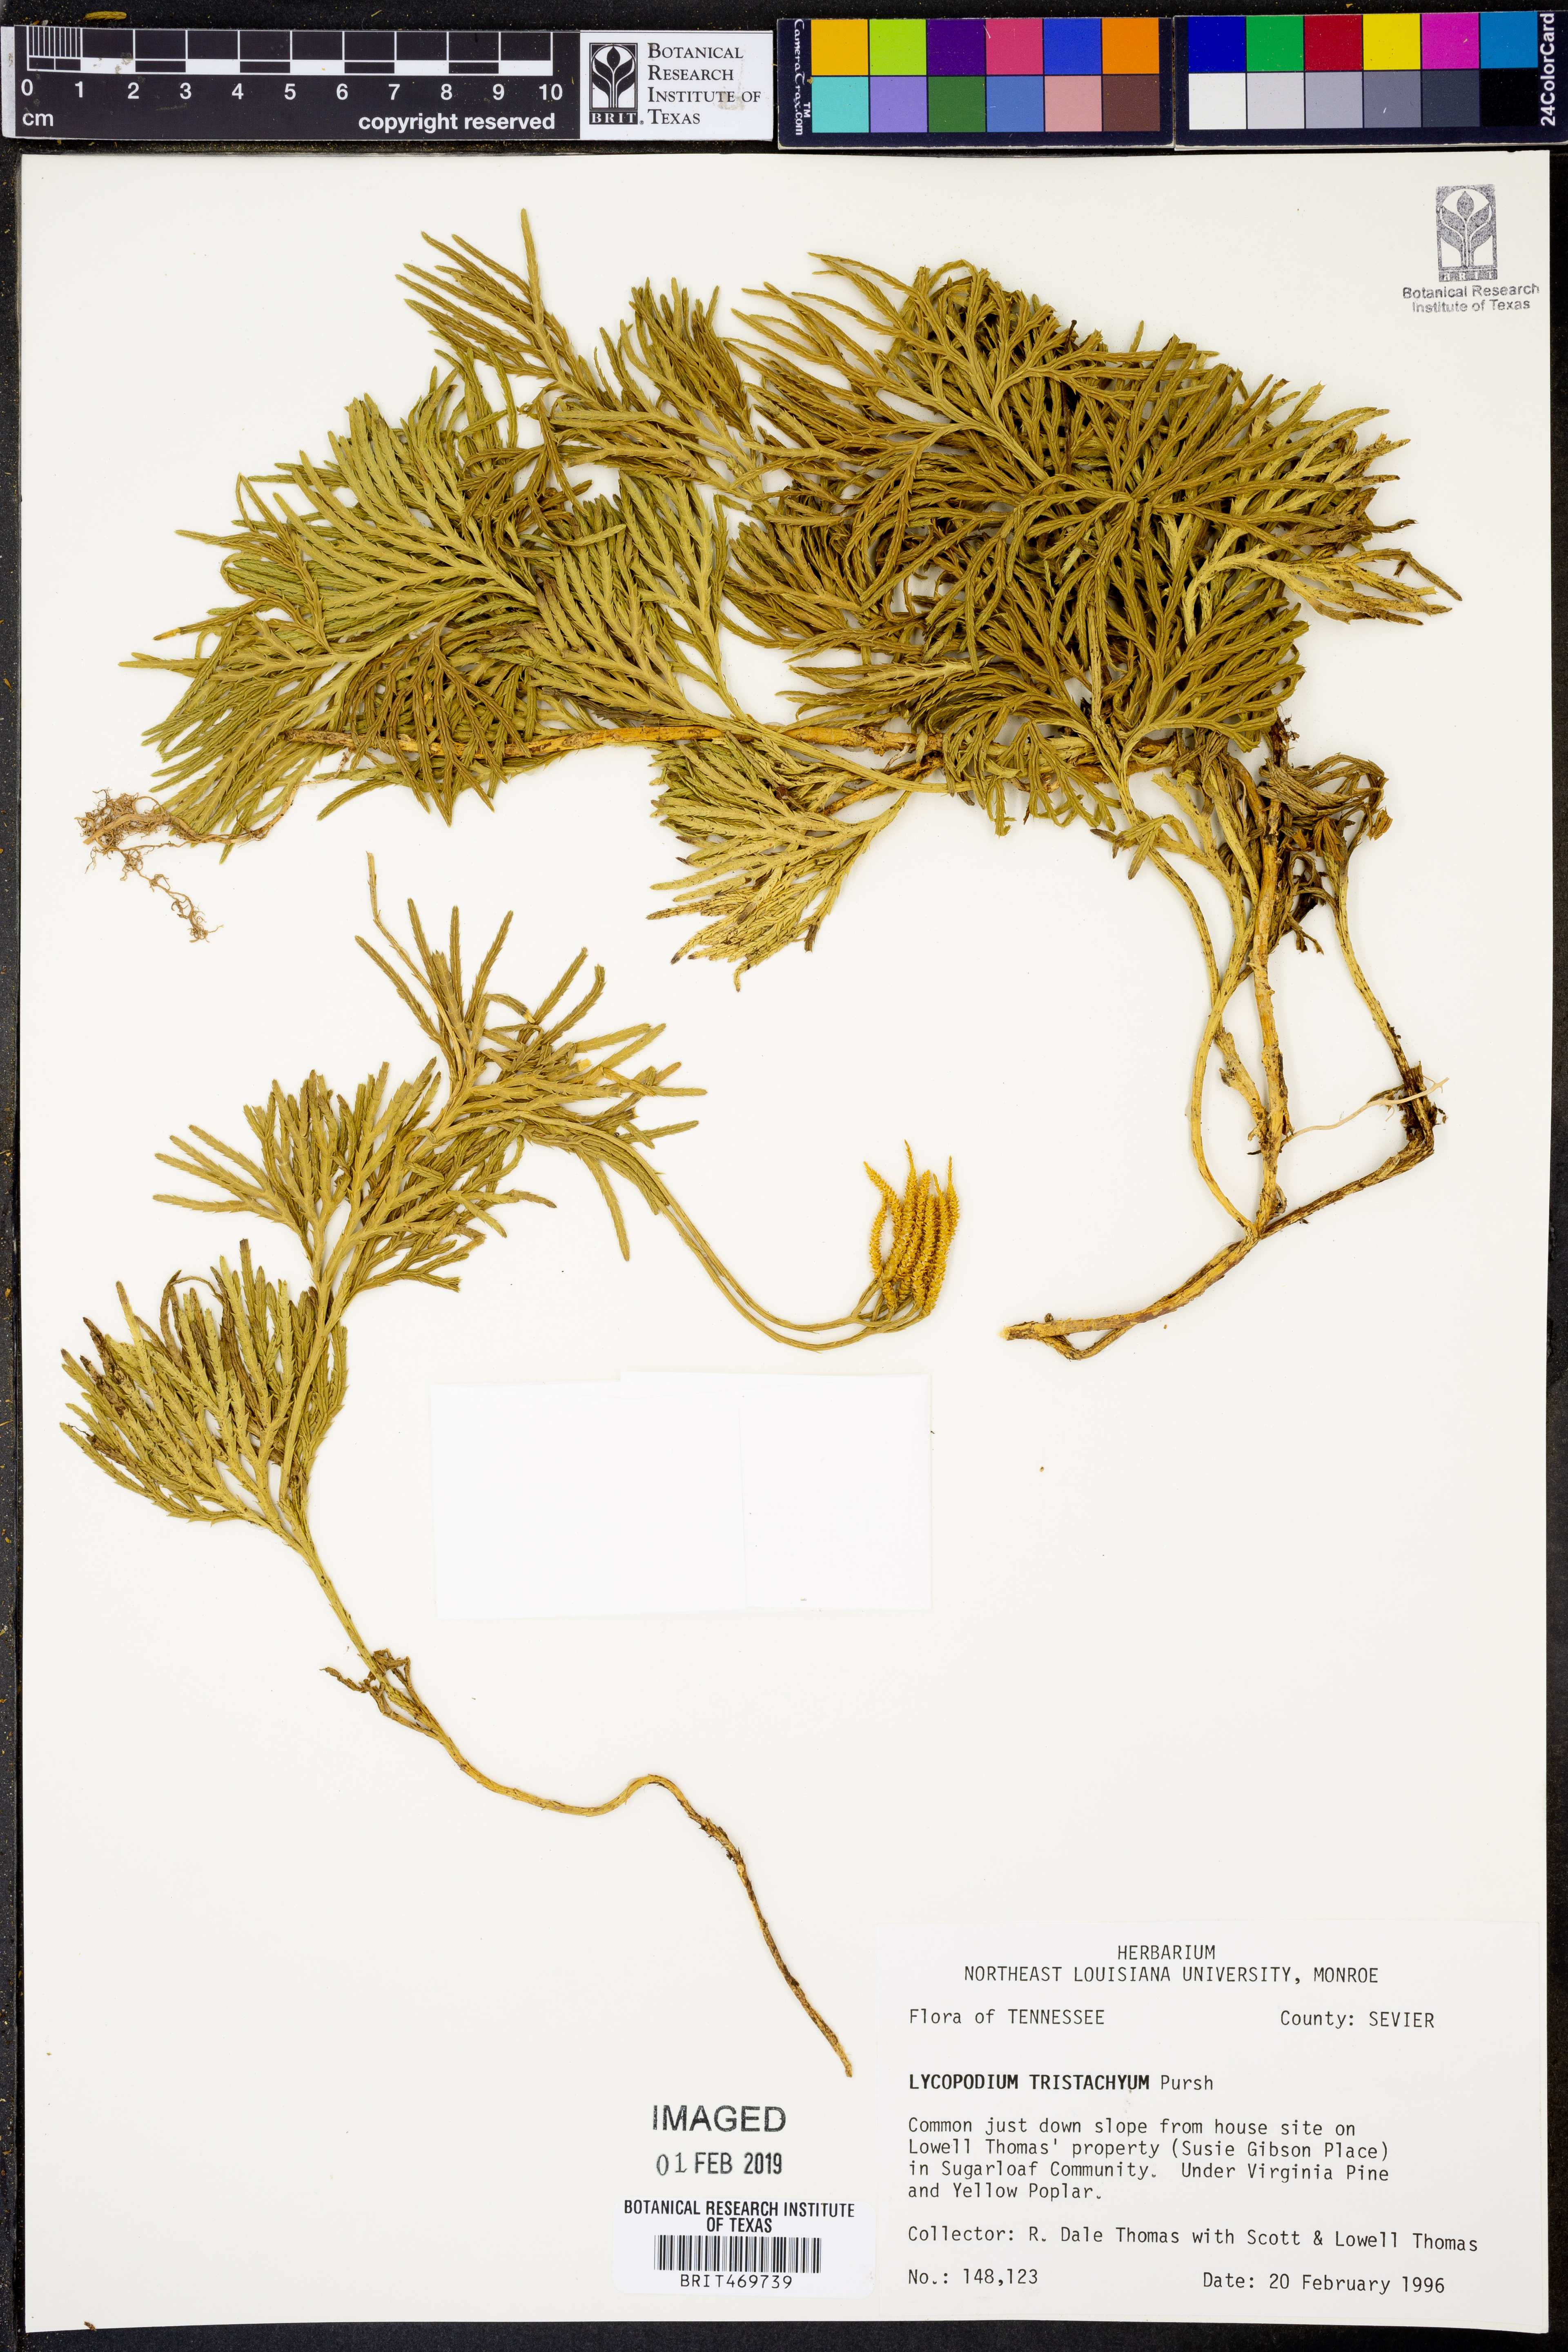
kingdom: Plantae
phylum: Tracheophyta
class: Lycopodiopsida
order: Lycopodiales
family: Lycopodiaceae
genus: Diphasiastrum
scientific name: Diphasiastrum tristachyum
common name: Blue ground-cedar
